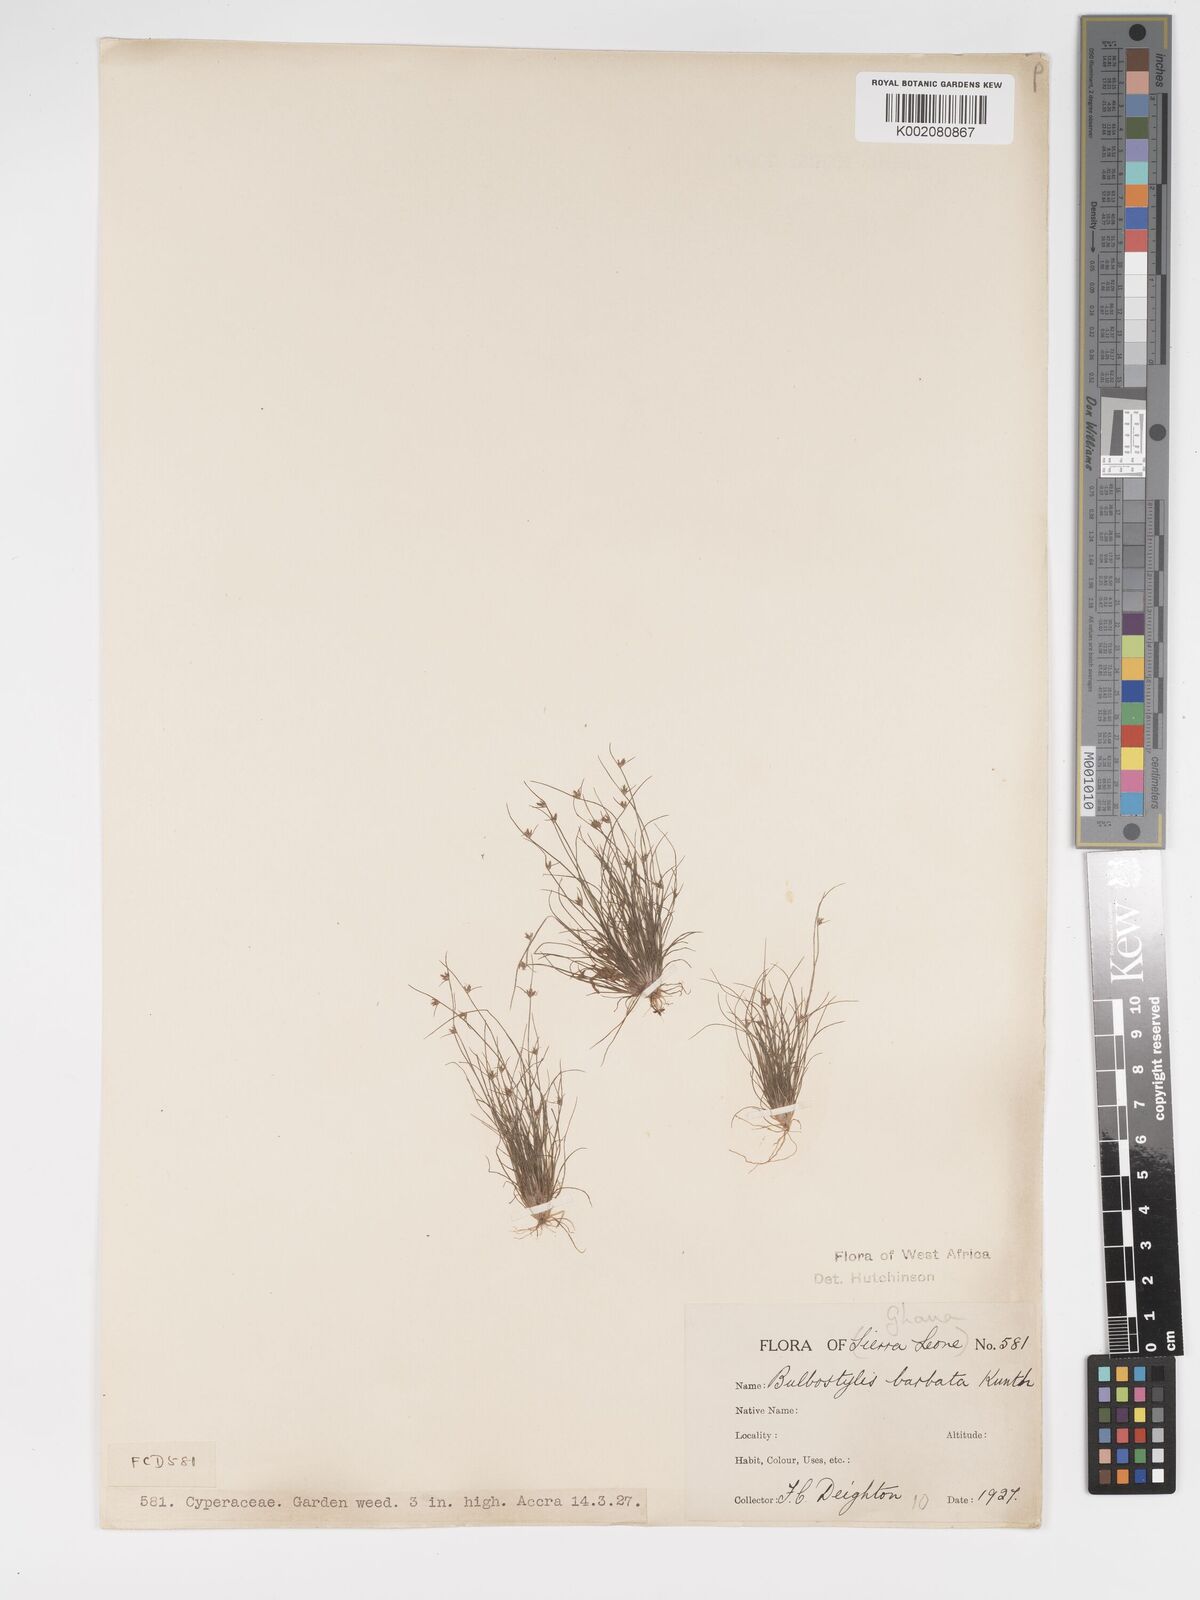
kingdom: Plantae
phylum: Tracheophyta
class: Liliopsida
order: Poales
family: Cyperaceae
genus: Bulbostylis
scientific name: Bulbostylis barbata
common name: Watergrass
